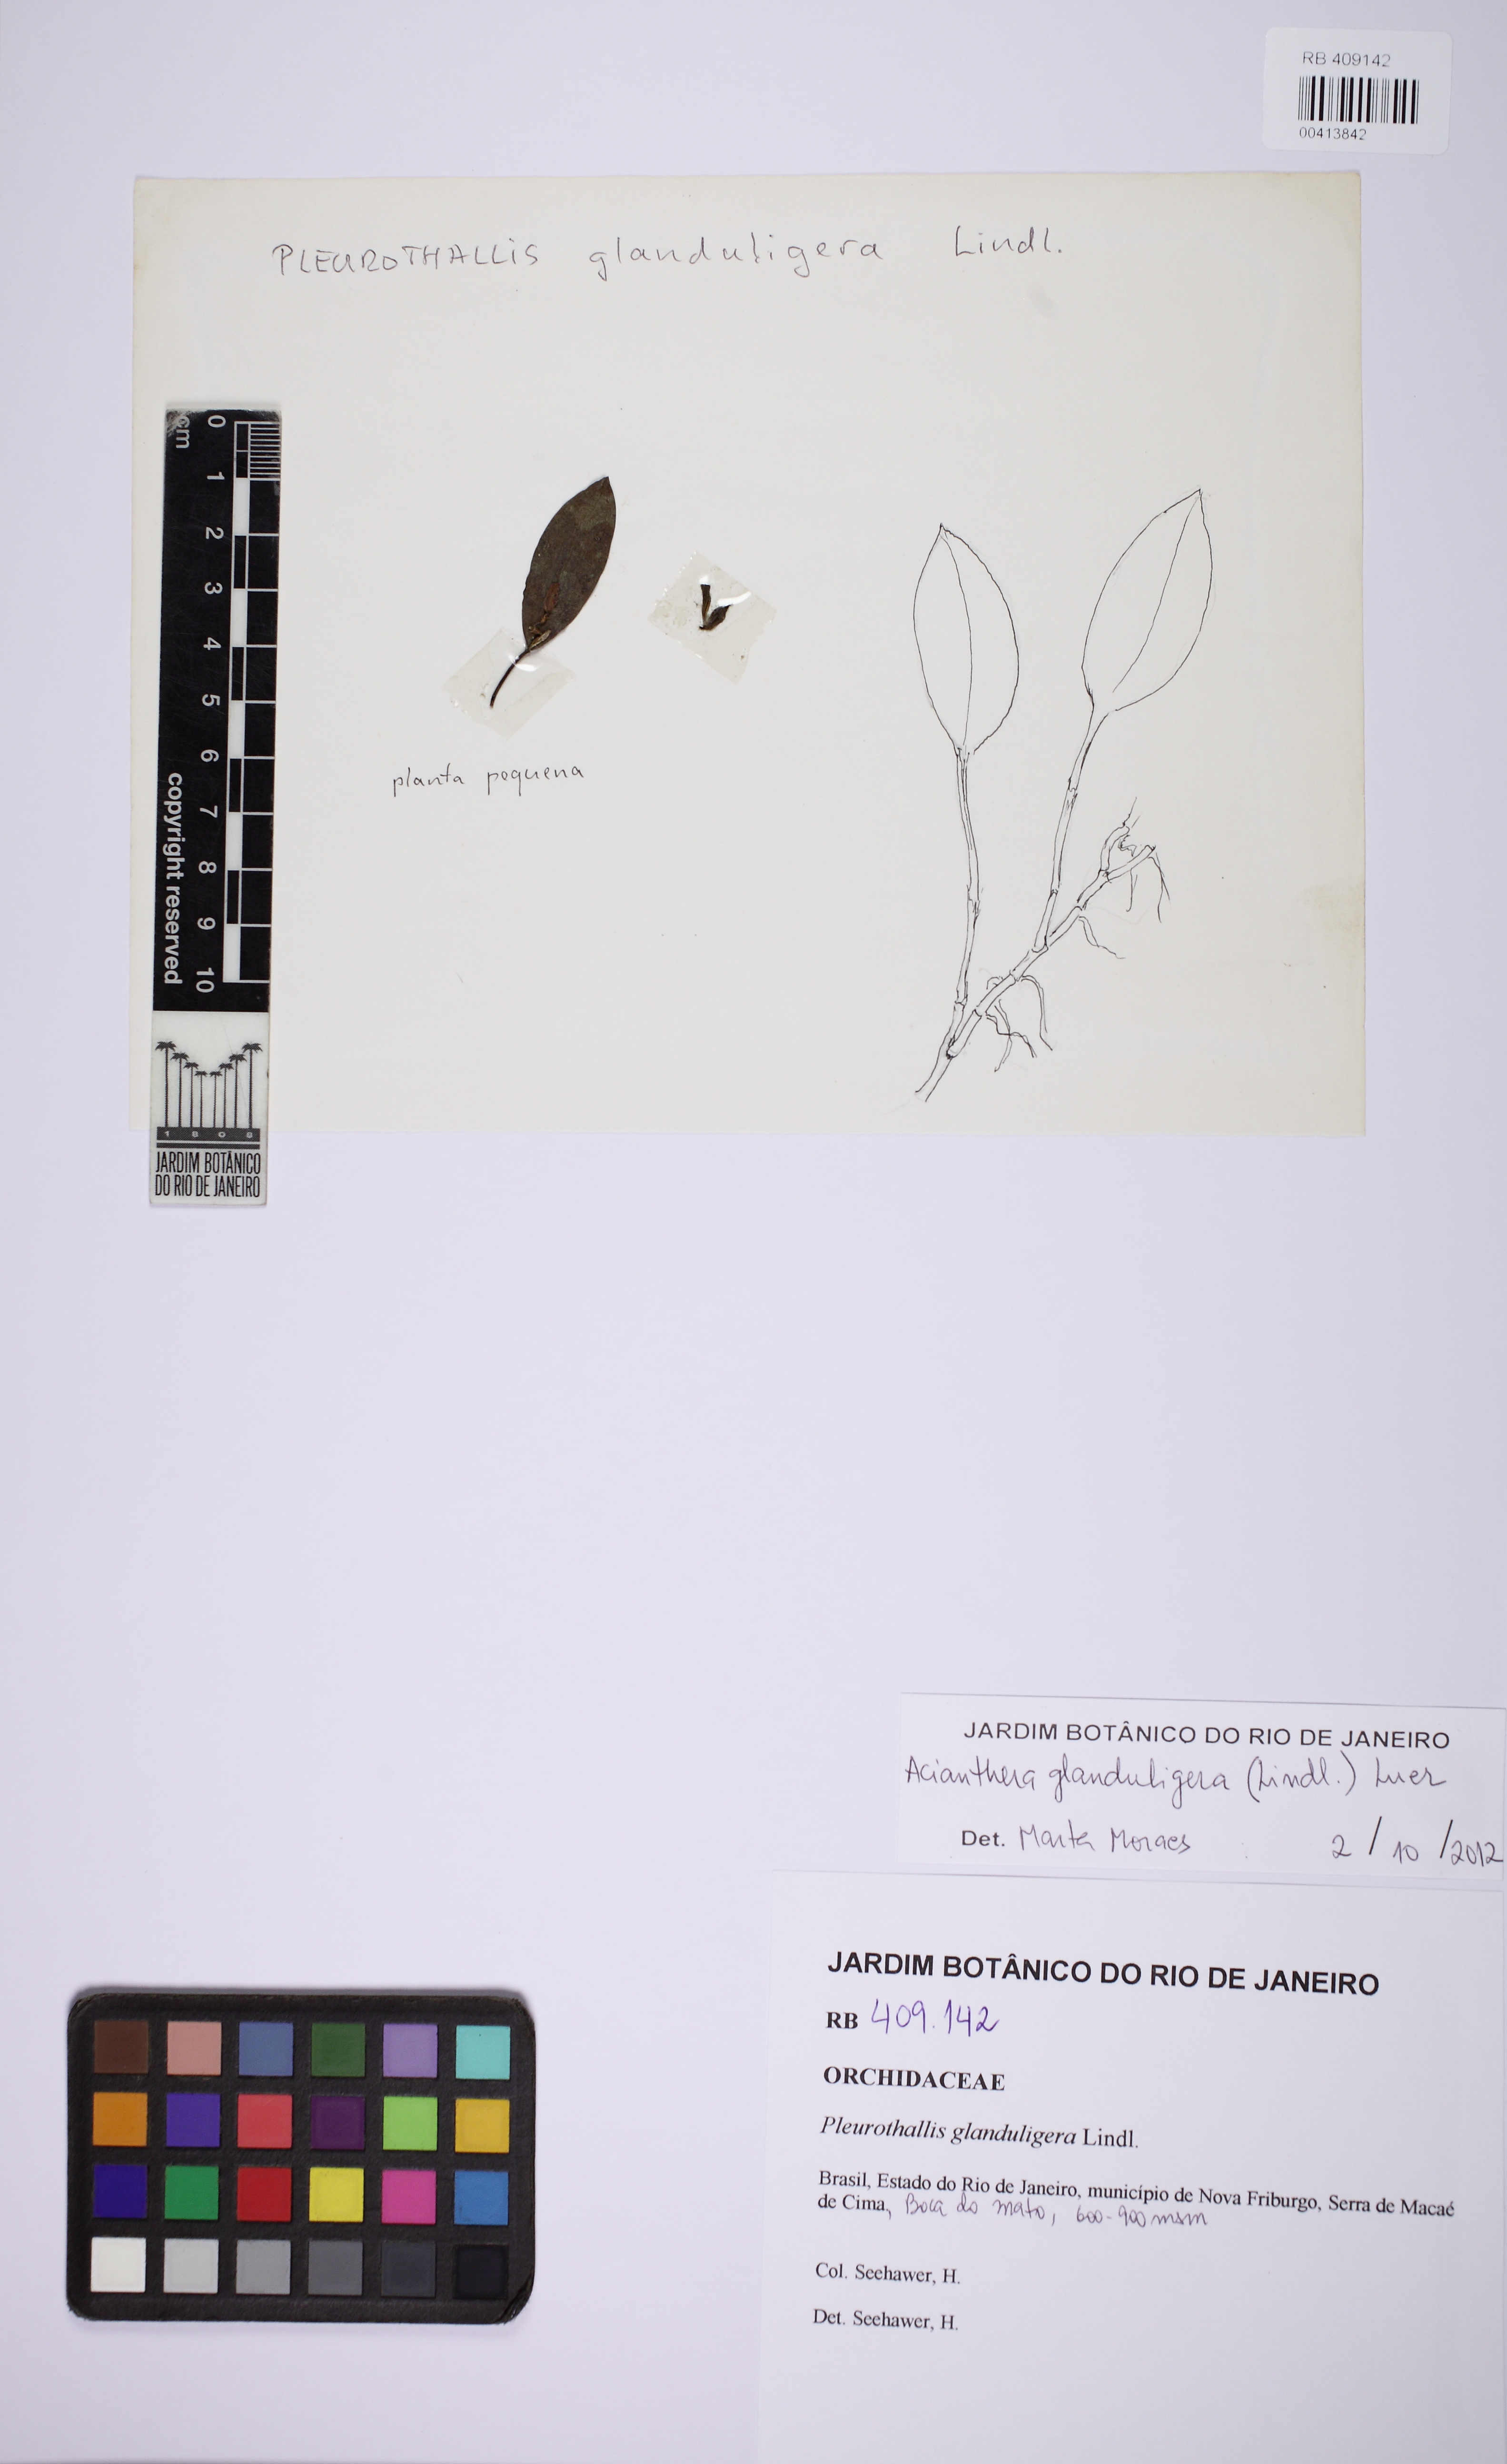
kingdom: Plantae
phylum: Tracheophyta
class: Liliopsida
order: Asparagales
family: Orchidaceae
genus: Acianthera
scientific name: Acianthera glanduligera
